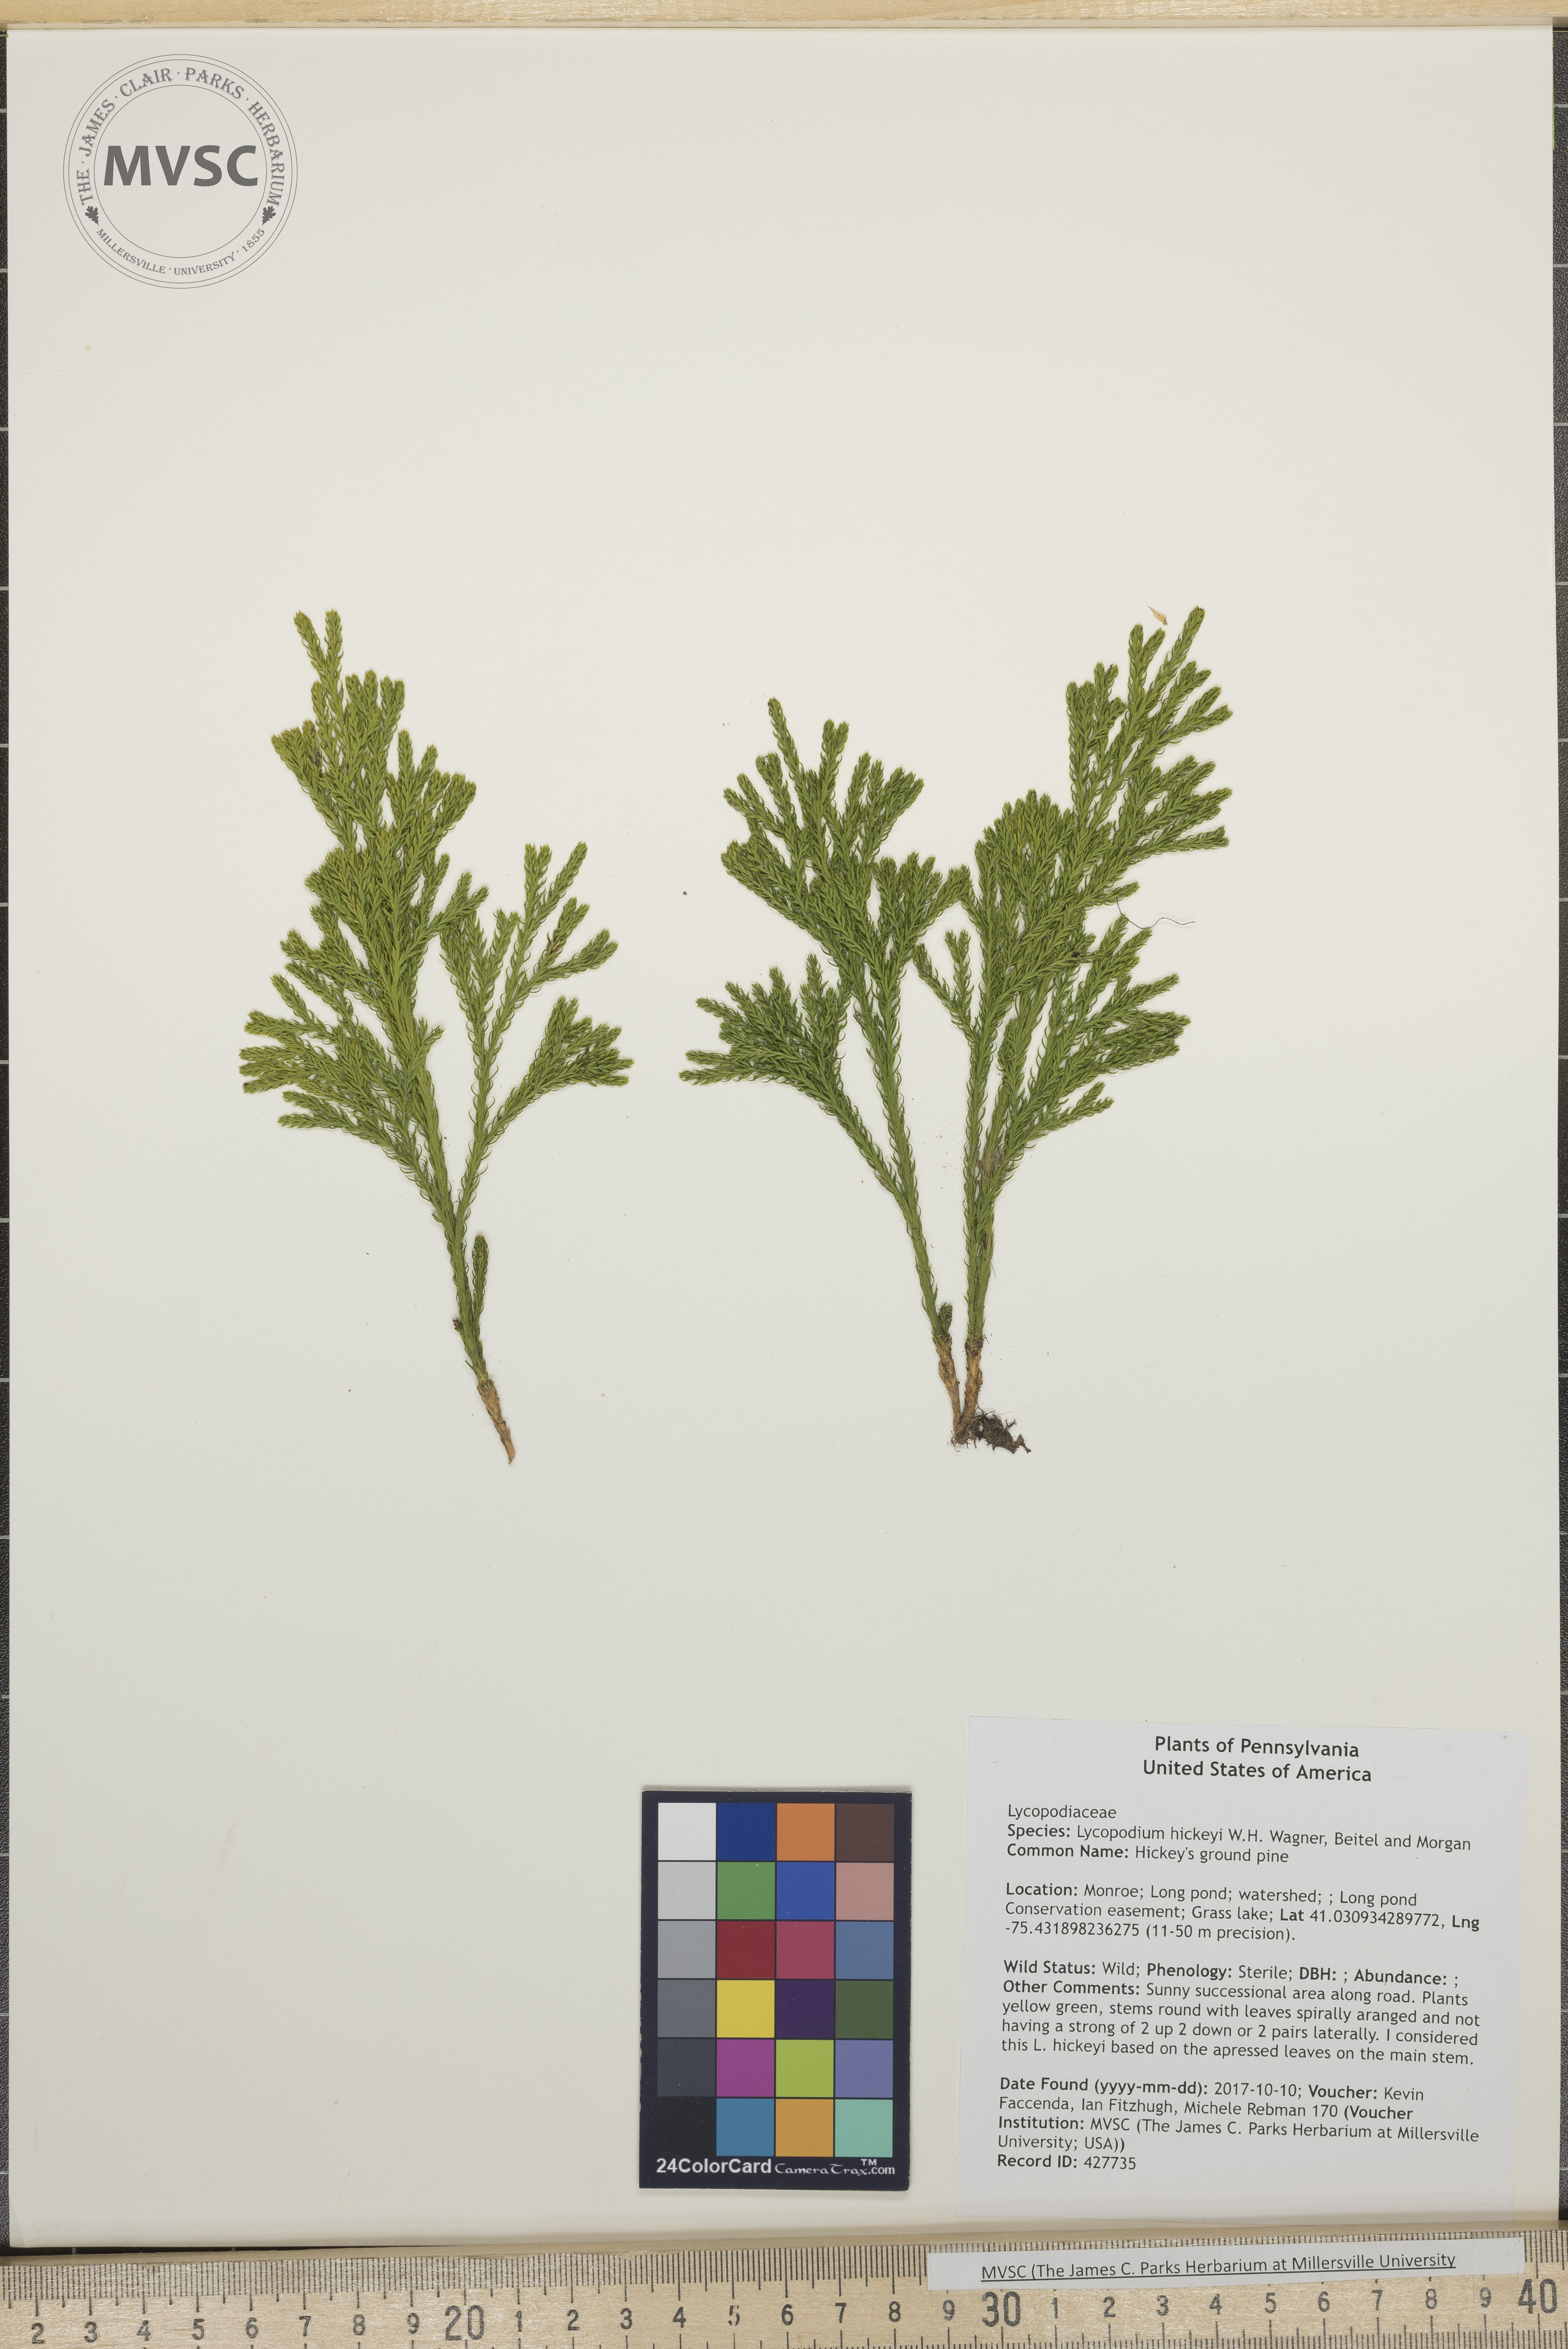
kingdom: Plantae
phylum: Tracheophyta
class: Lycopodiopsida
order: Lycopodiales
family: Lycopodiaceae
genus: Dendrolycopodium
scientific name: Dendrolycopodium hickeyi
